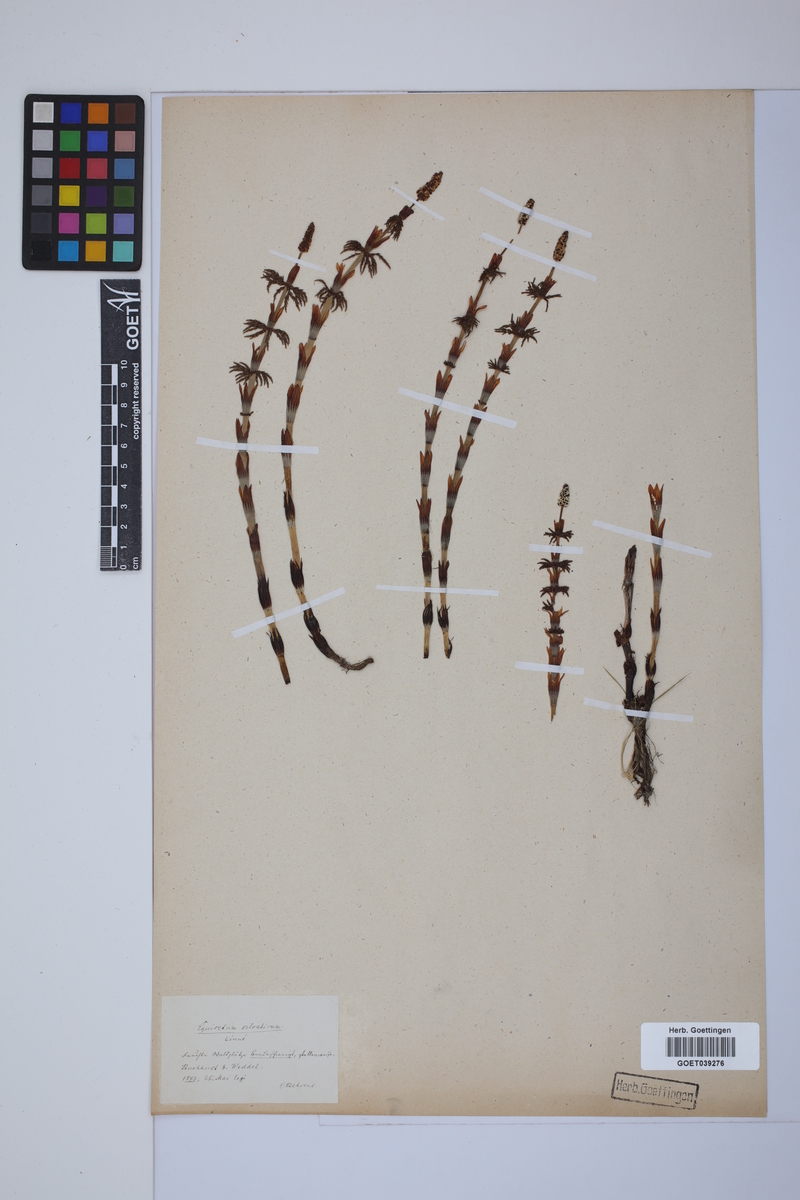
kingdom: Plantae
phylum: Tracheophyta
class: Polypodiopsida
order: Equisetales
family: Equisetaceae
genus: Equisetum
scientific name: Equisetum sylvaticum
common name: Wood horsetail
